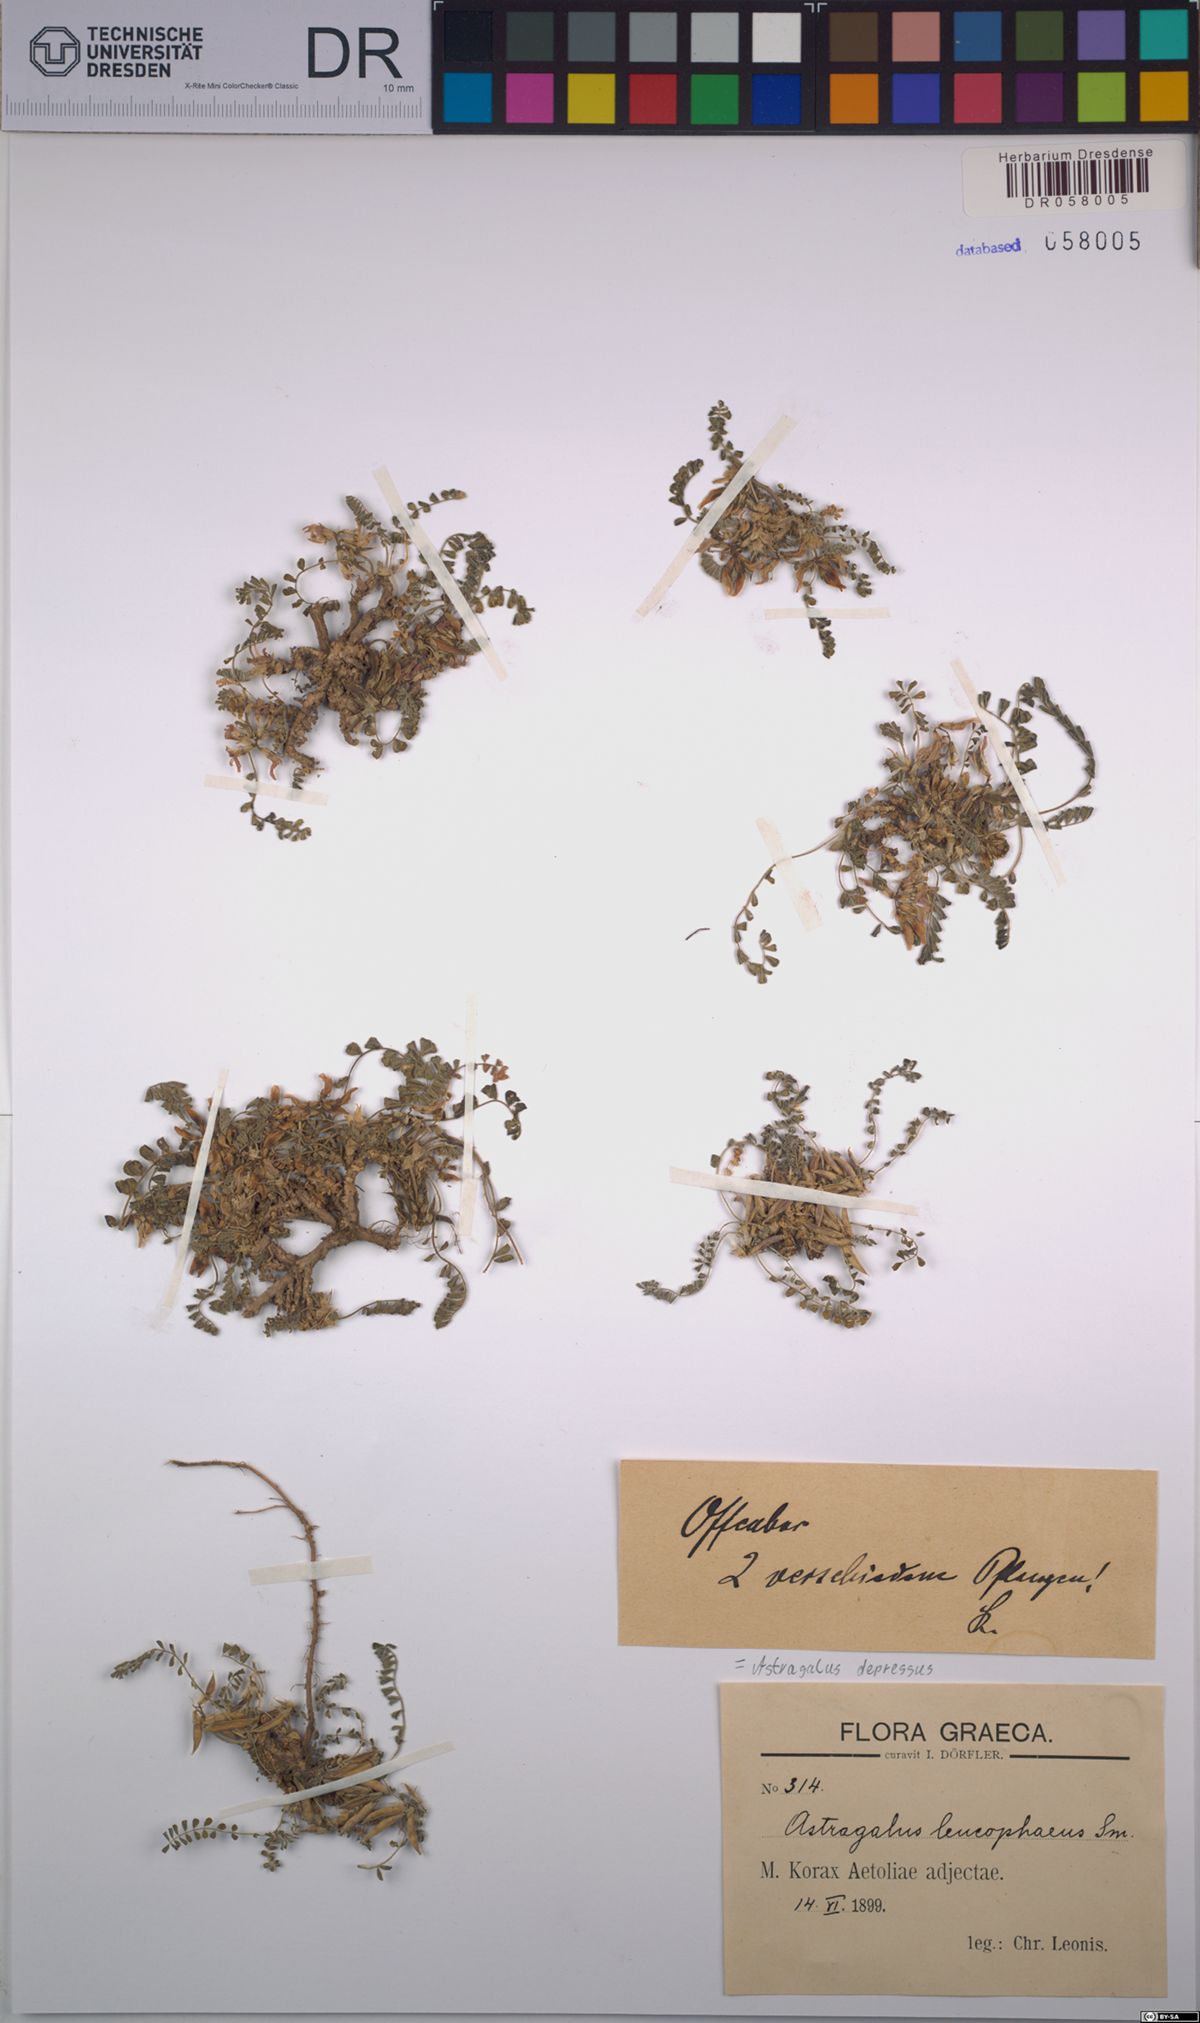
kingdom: Plantae
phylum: Tracheophyta
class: Magnoliopsida
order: Fabales
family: Fabaceae
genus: Astragalus
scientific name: Astragalus depressus
